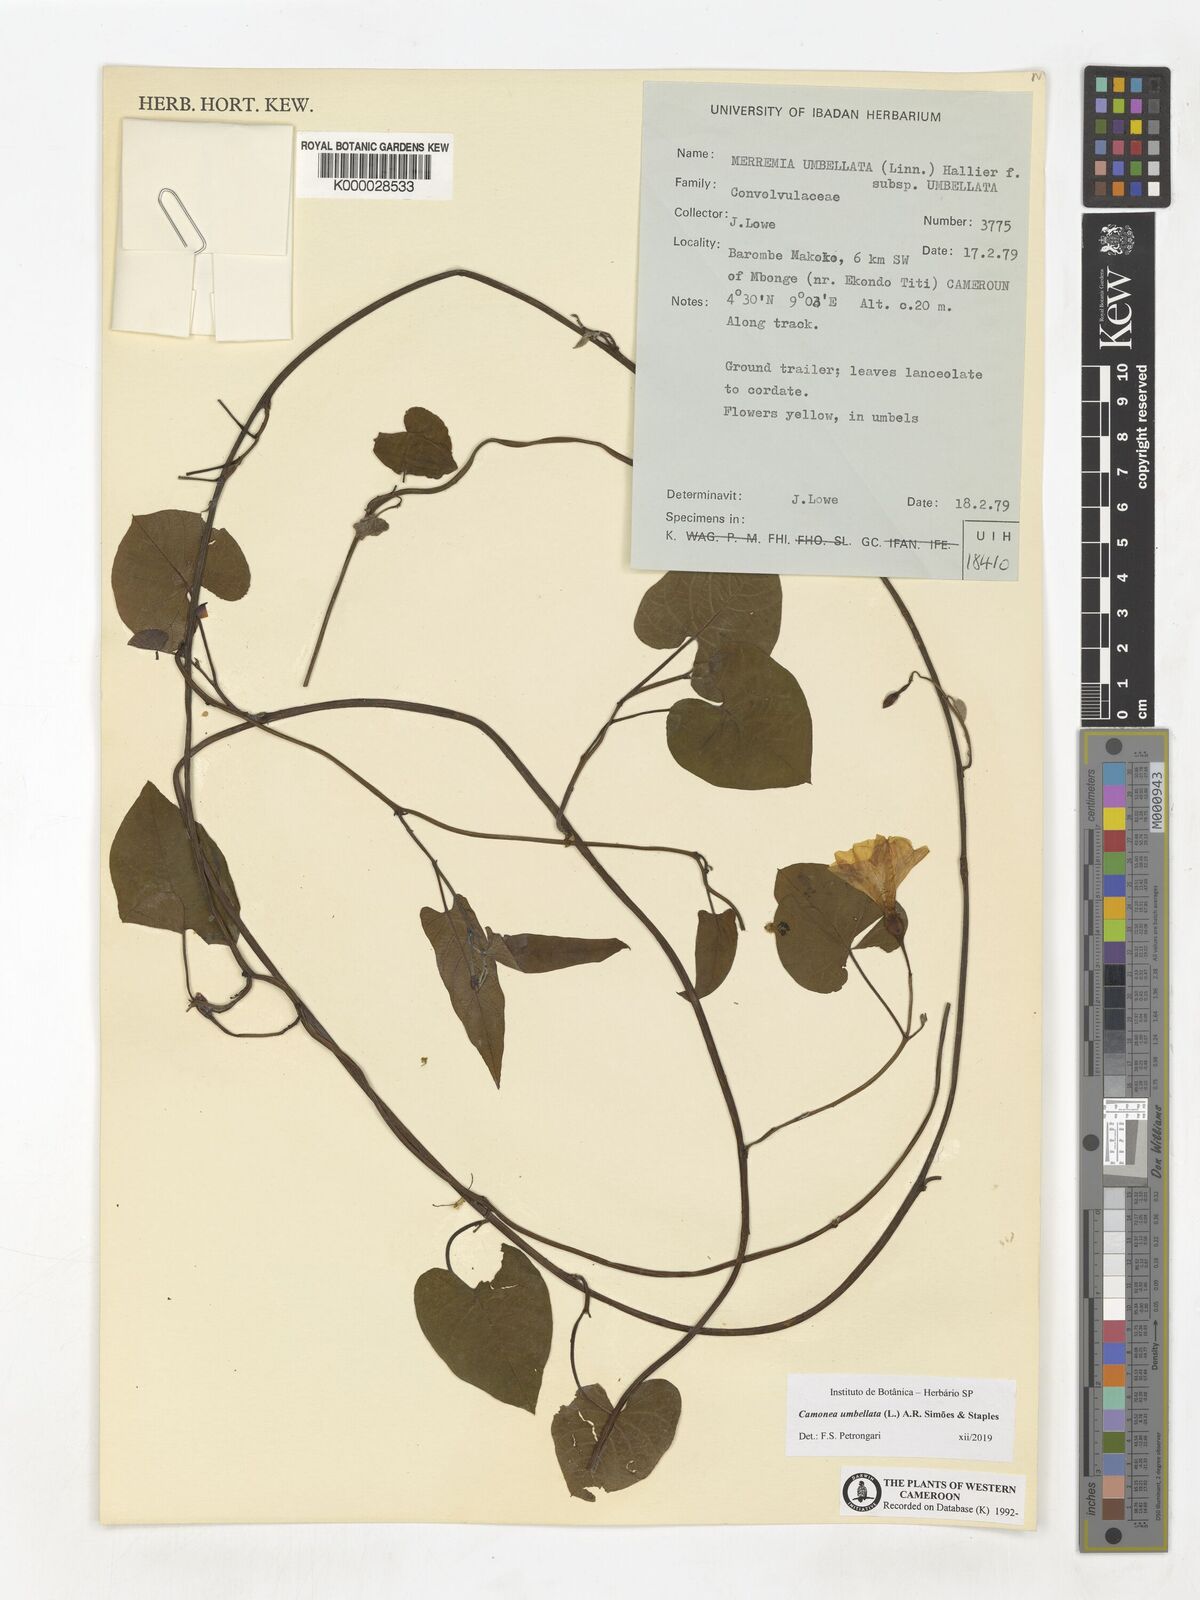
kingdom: Plantae
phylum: Tracheophyta
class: Magnoliopsida
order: Solanales
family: Convolvulaceae
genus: Camonea
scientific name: Camonea umbellata
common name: Hogvine
